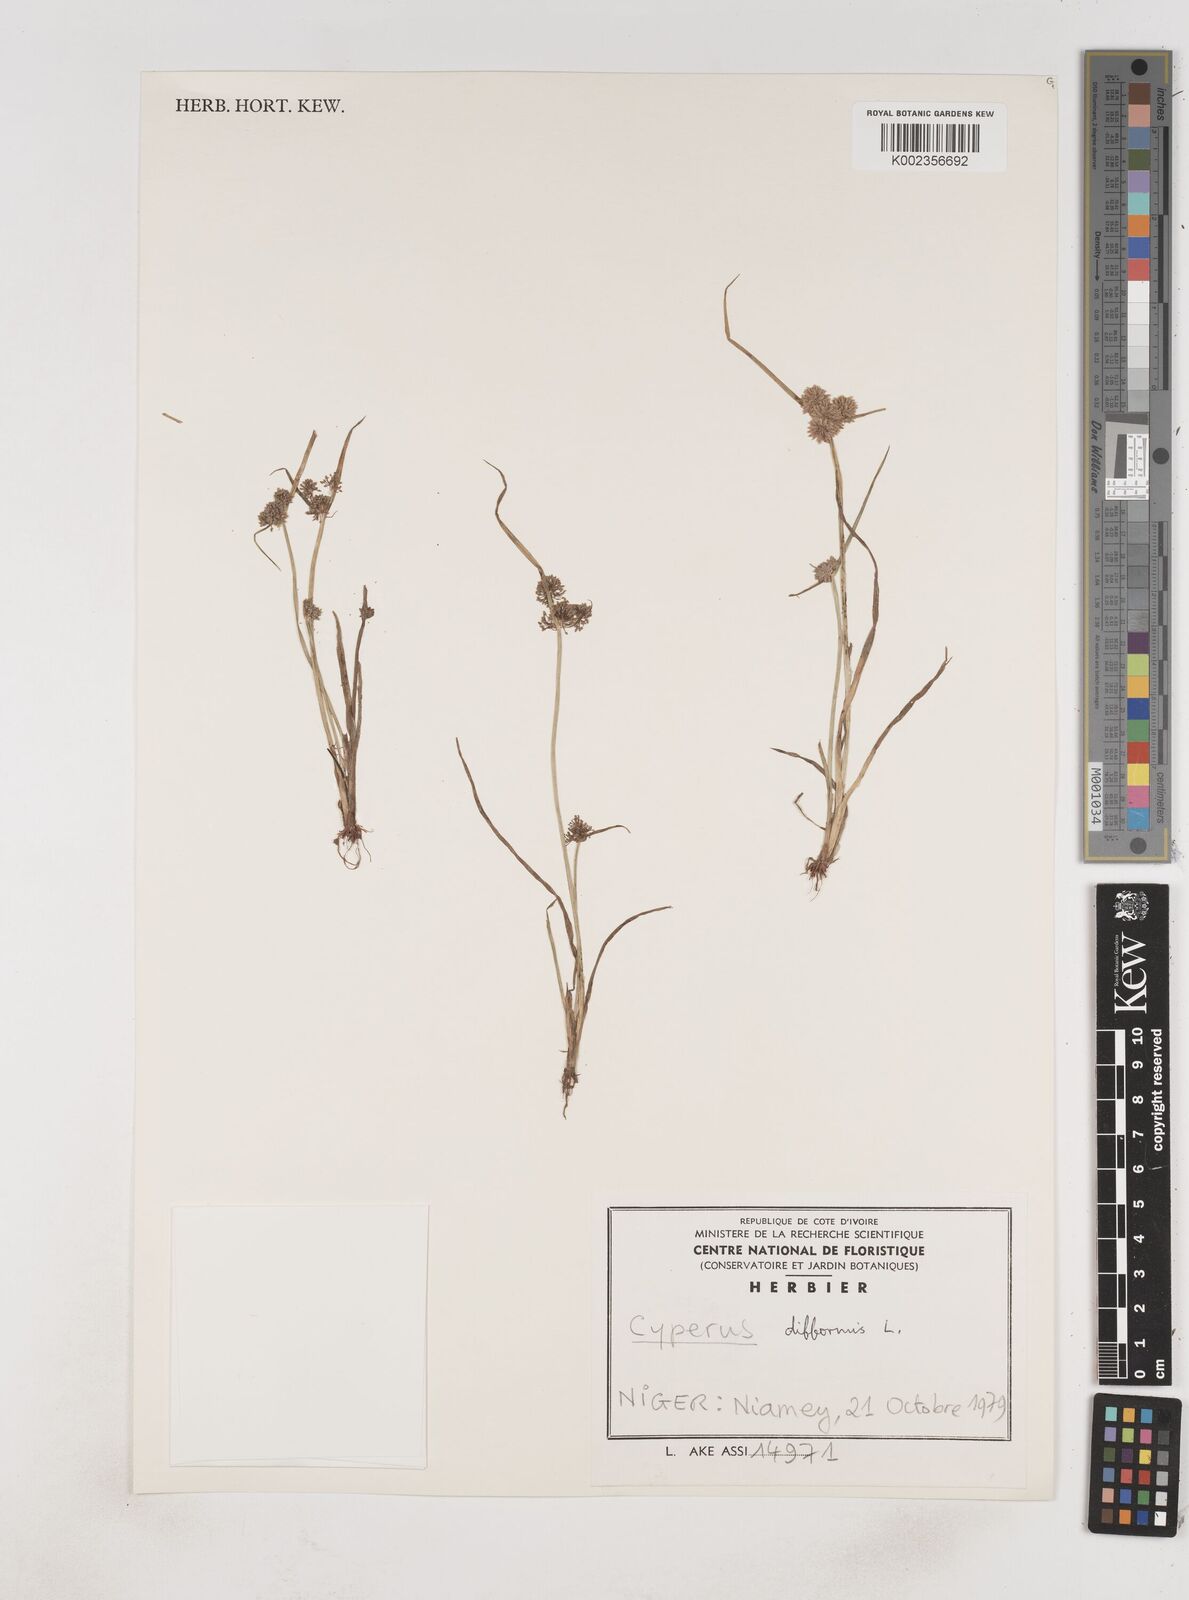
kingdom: Plantae
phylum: Tracheophyta
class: Liliopsida
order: Poales
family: Cyperaceae
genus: Cyperus
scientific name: Cyperus difformis
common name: Variable flatsedge
